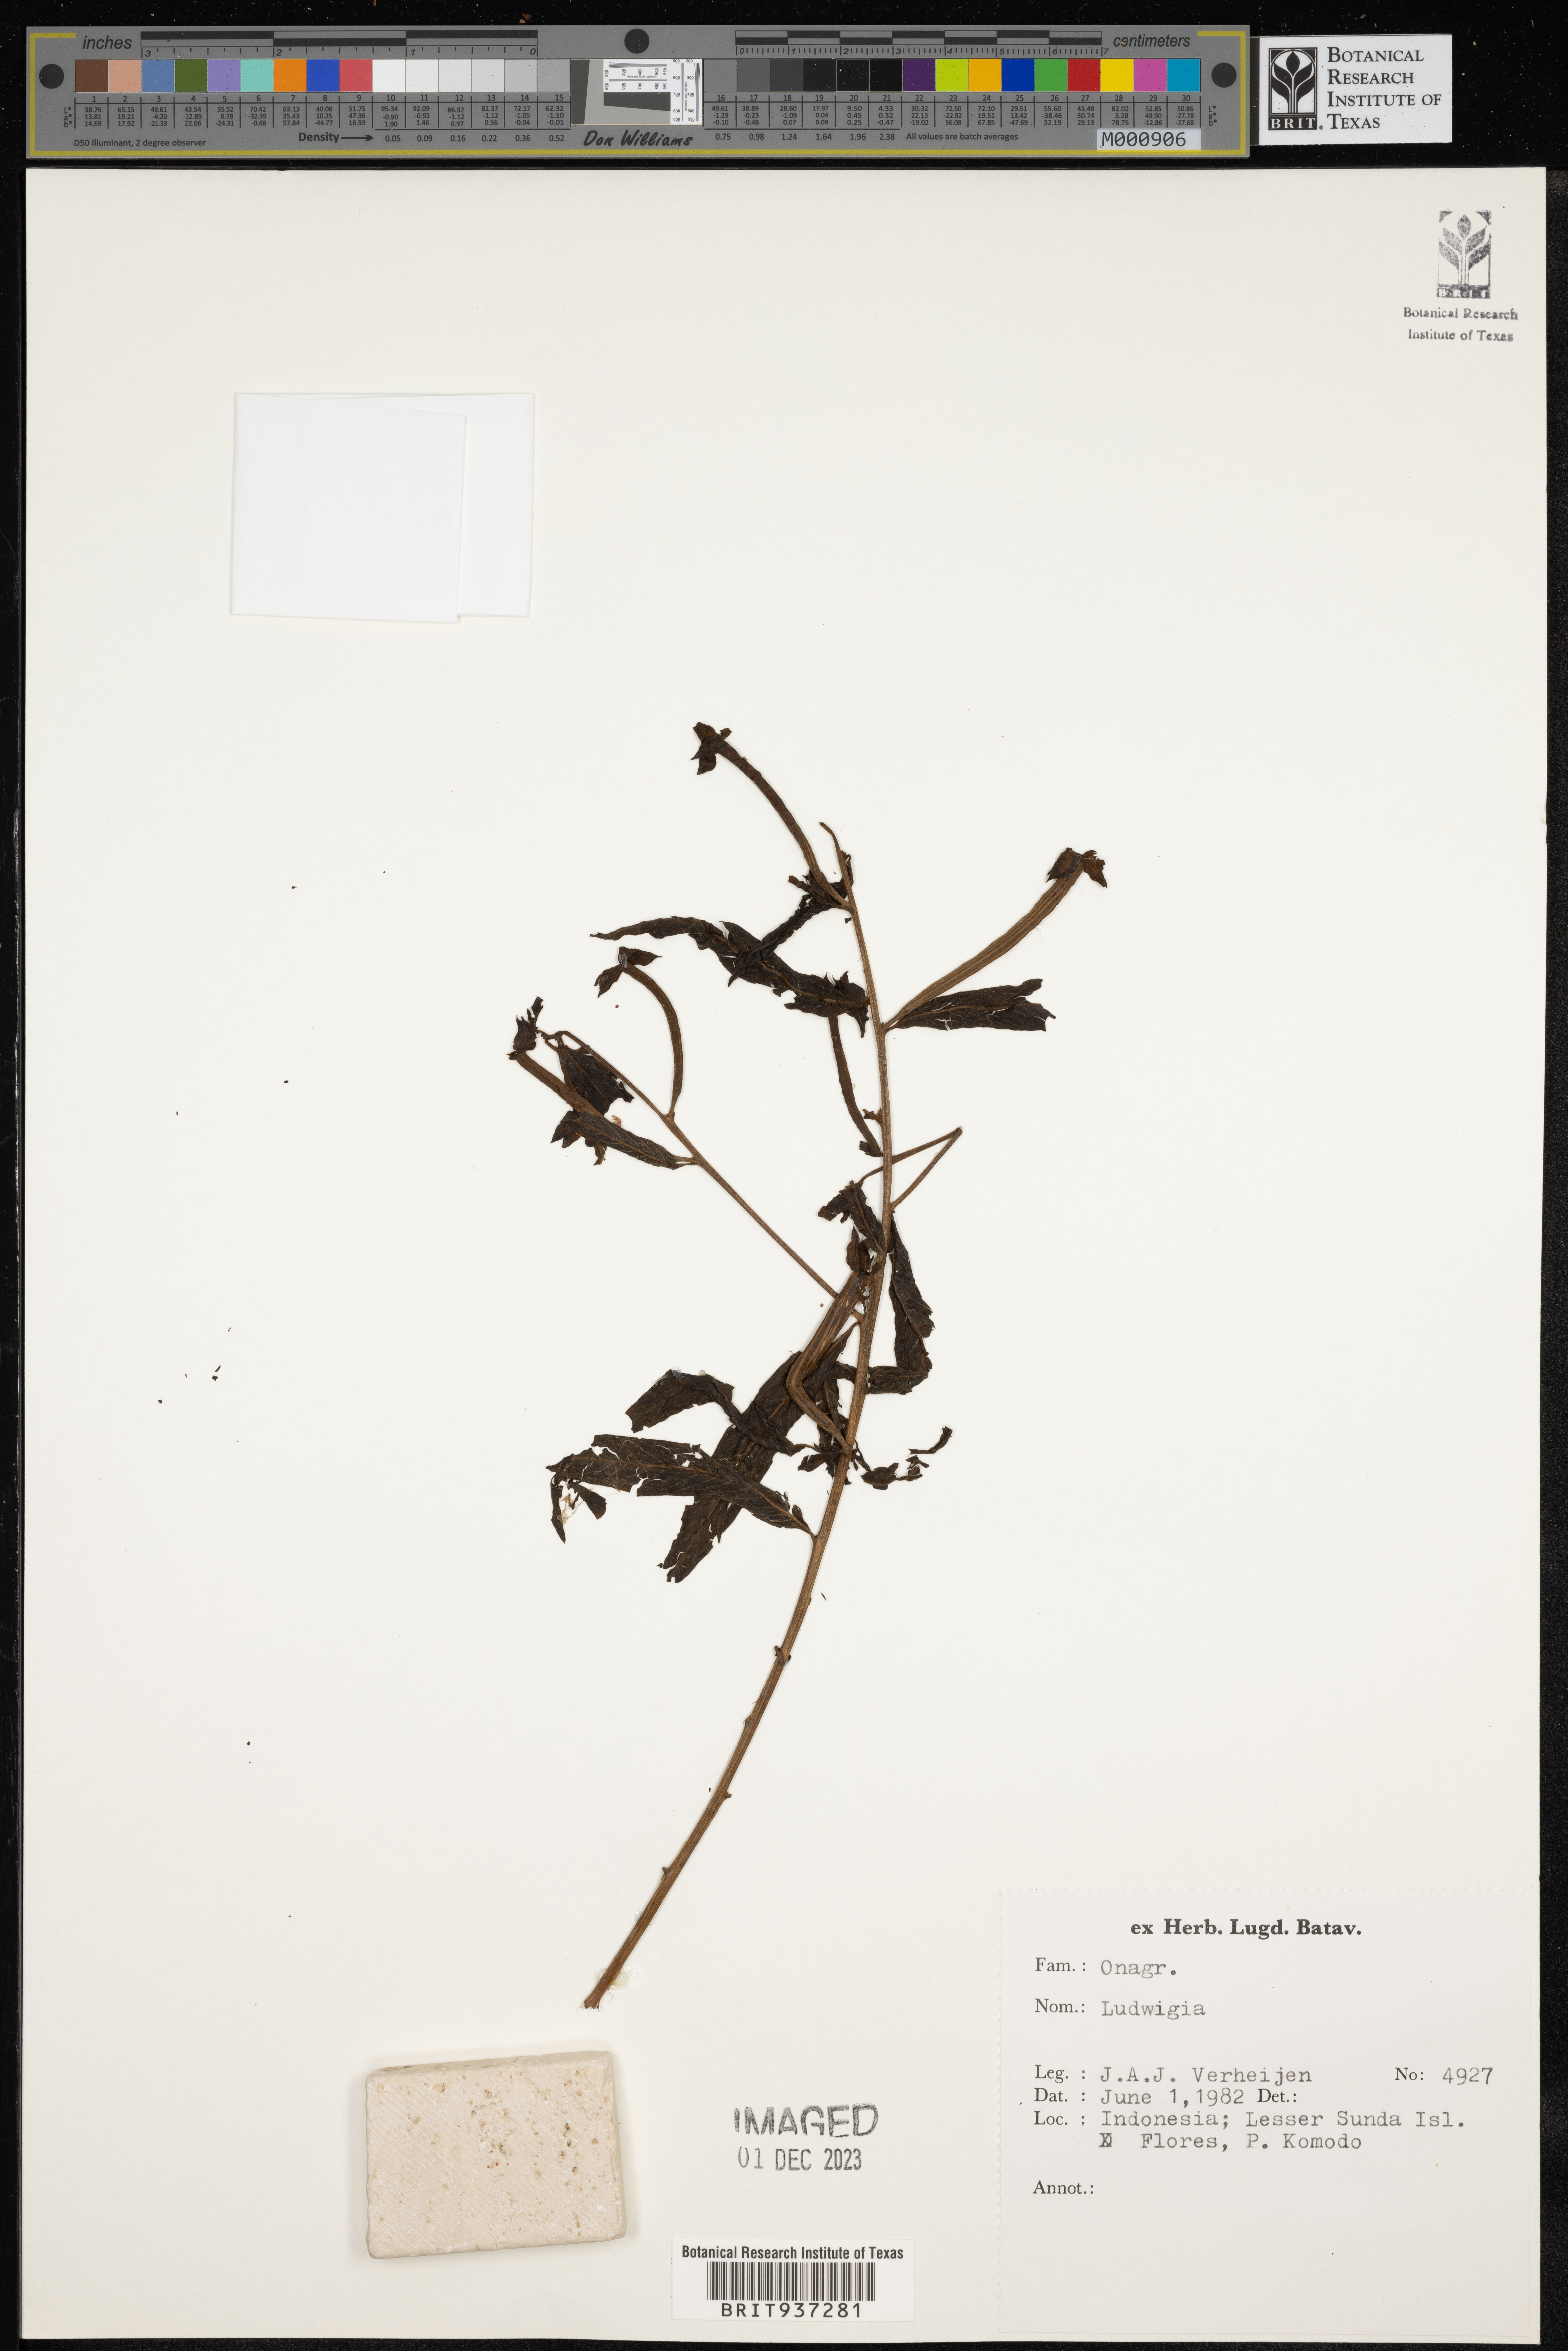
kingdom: Plantae
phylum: Tracheophyta
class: Magnoliopsida
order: Myrtales
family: Onagraceae
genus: Ludwigia
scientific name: Ludwigia
